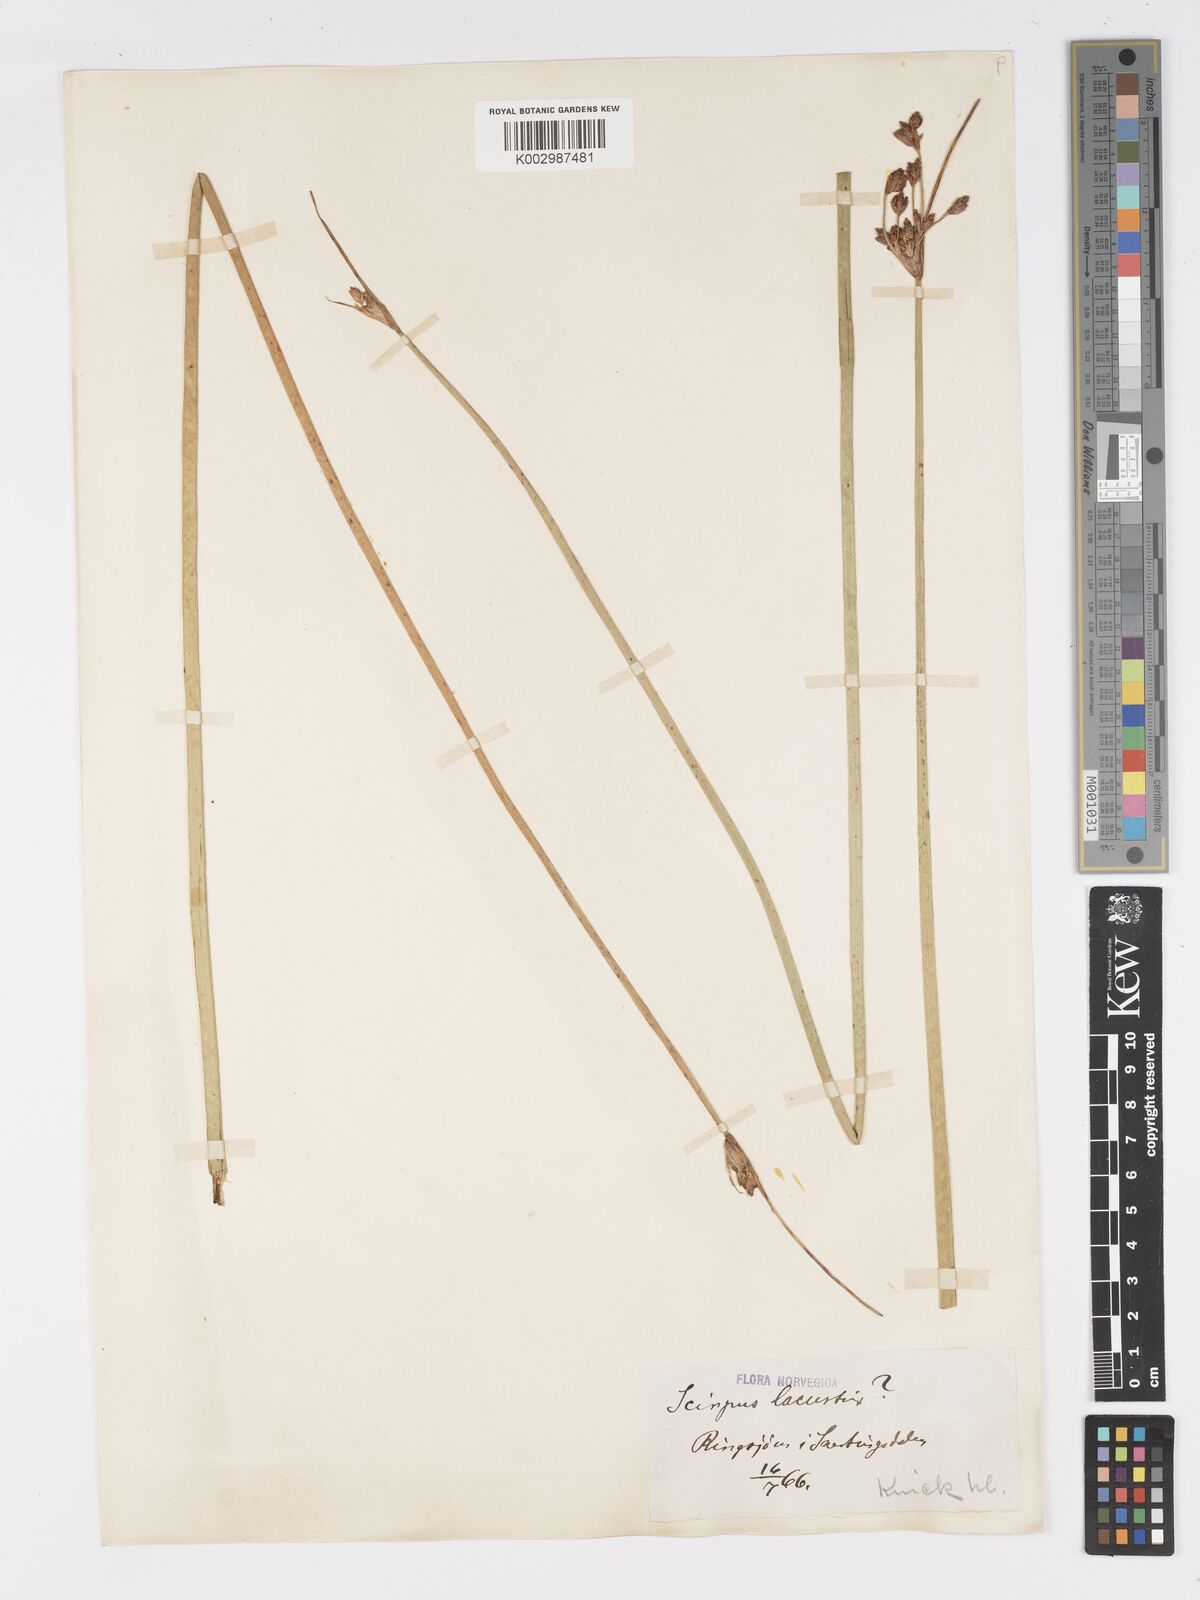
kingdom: Plantae
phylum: Tracheophyta
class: Liliopsida
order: Poales
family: Cyperaceae
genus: Schoenoplectus
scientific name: Schoenoplectus lacustris
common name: Common club-rush
